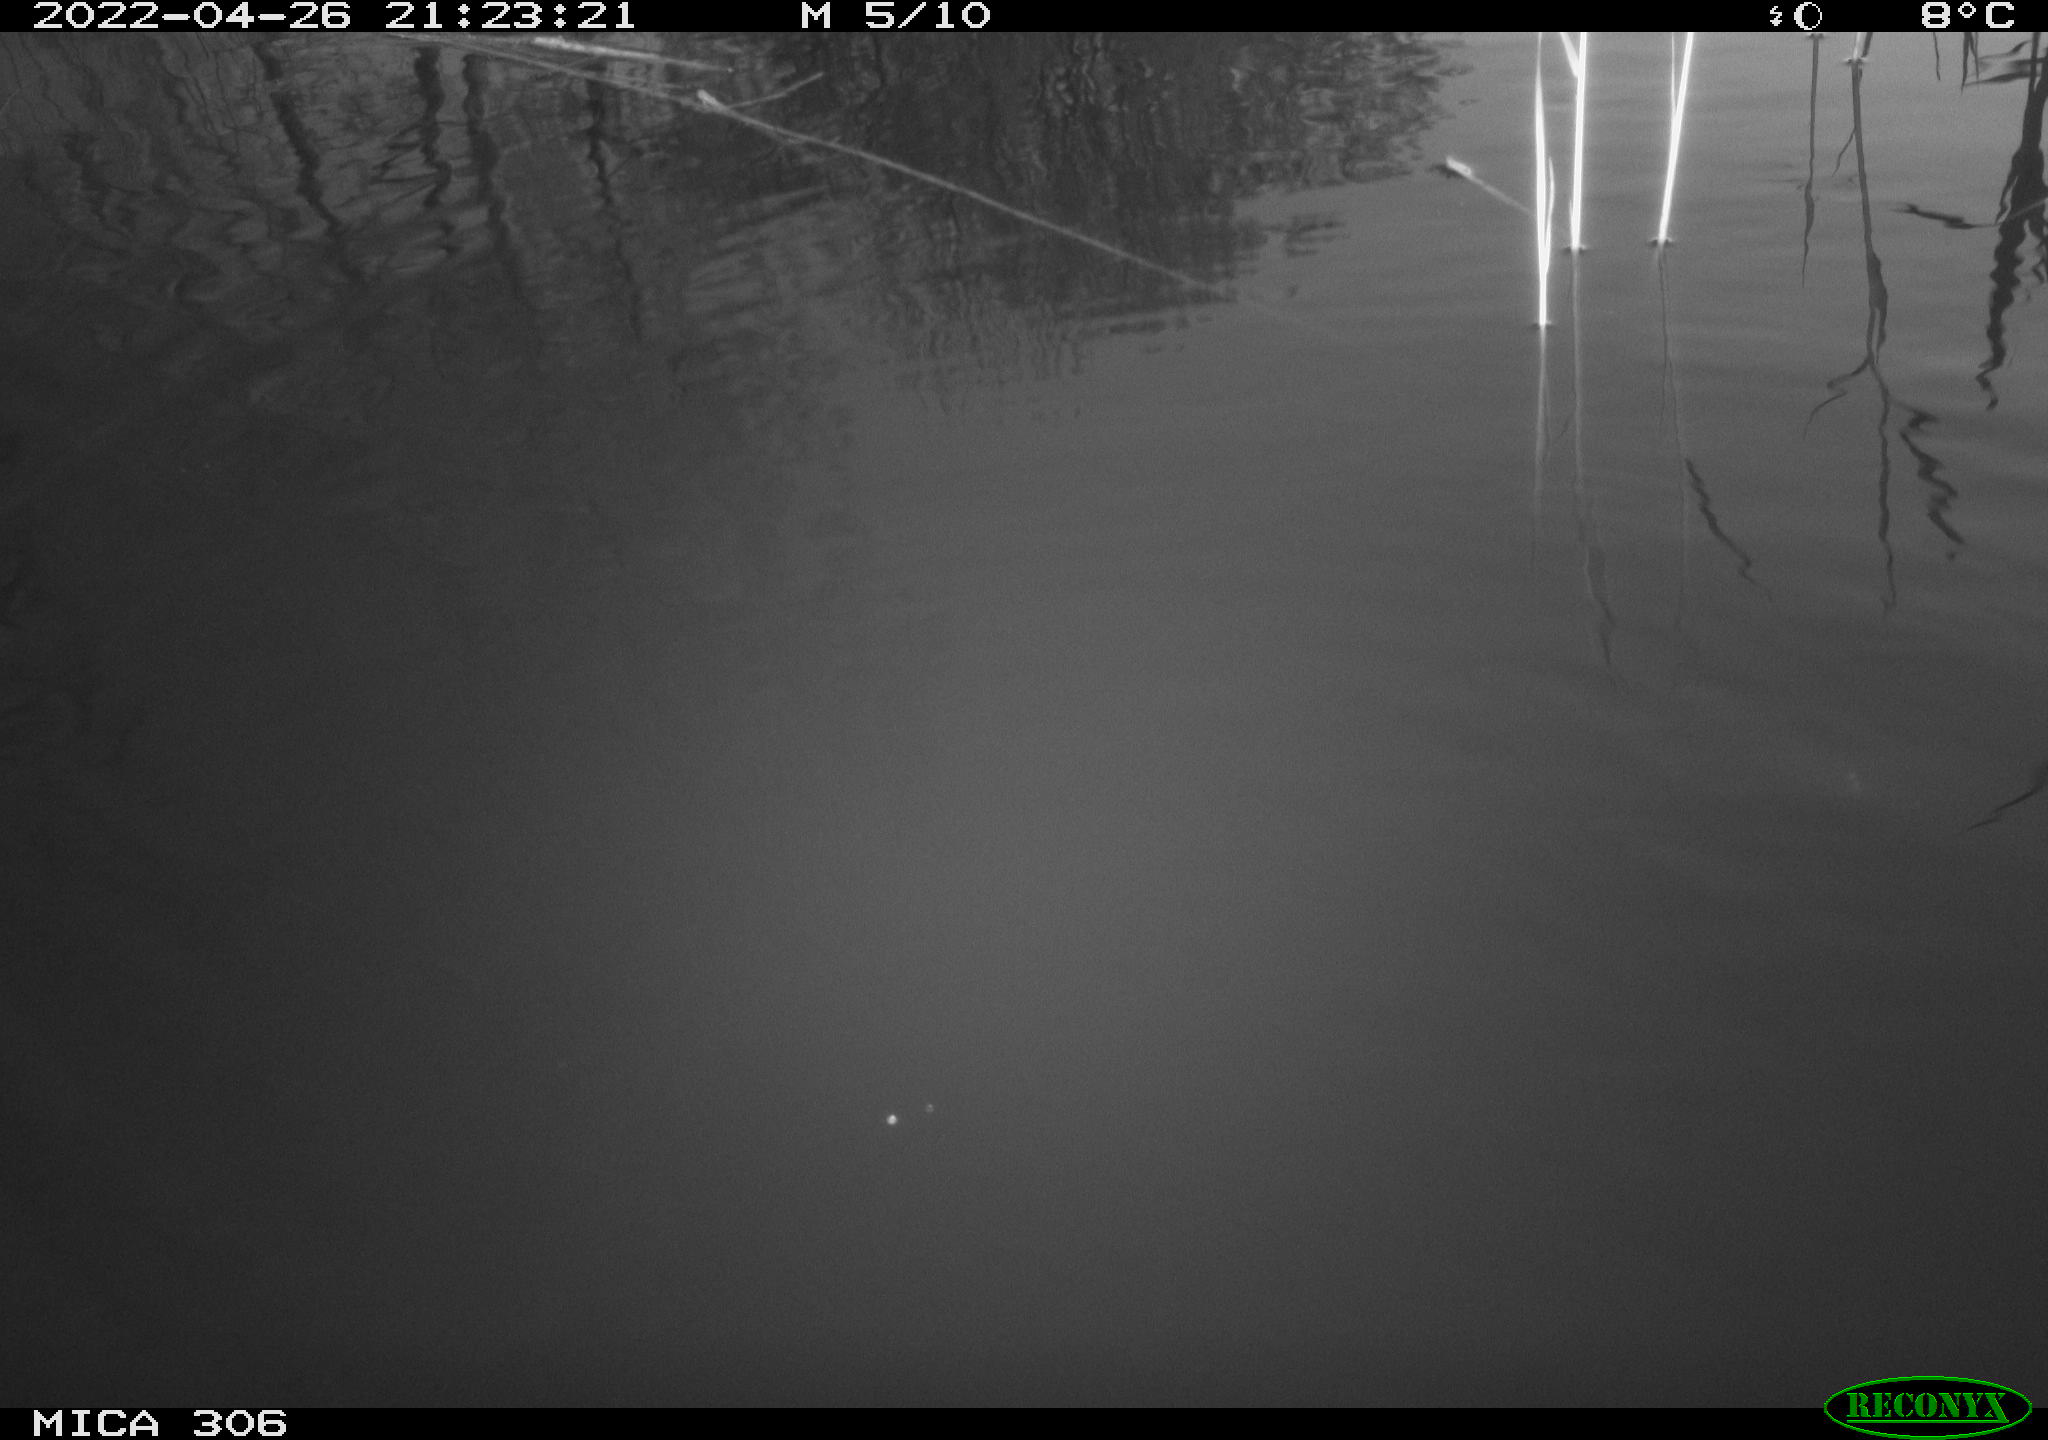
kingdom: Animalia
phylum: Chordata
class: Aves
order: Gruiformes
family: Rallidae
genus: Gallinula
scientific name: Gallinula chloropus
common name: Common moorhen
